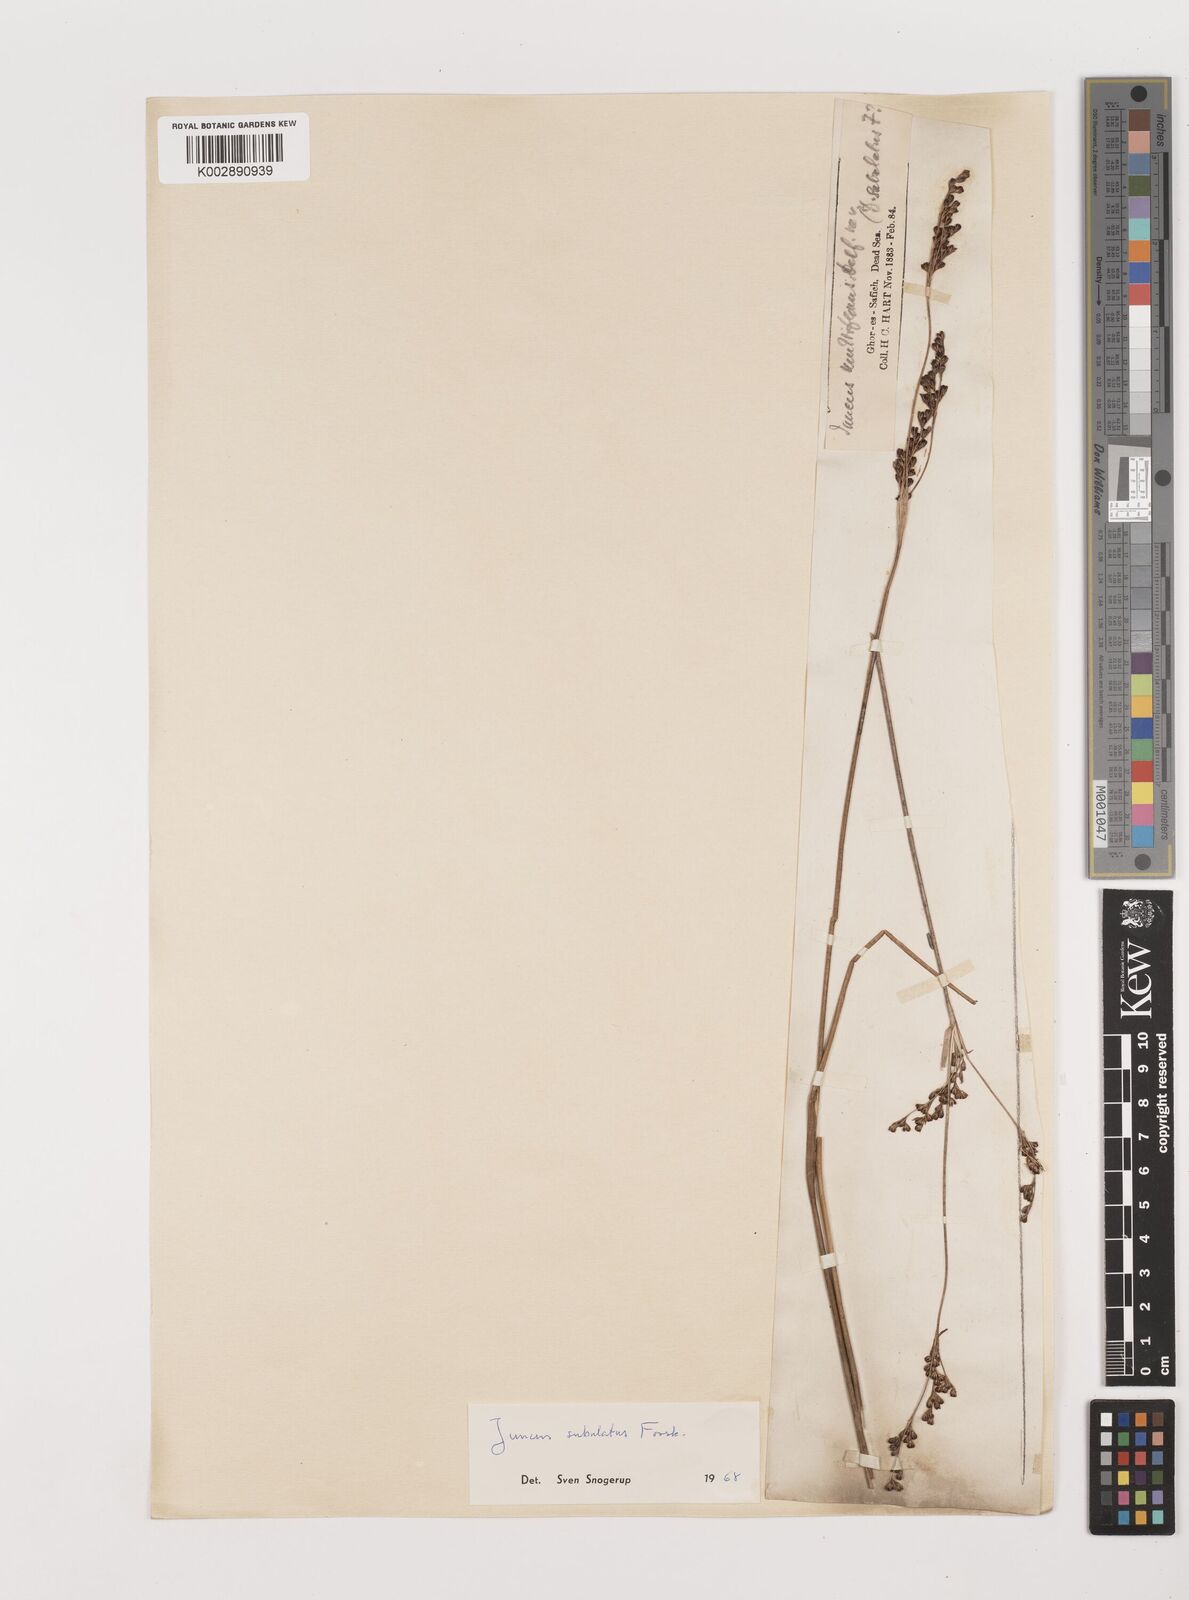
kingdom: Plantae
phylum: Tracheophyta
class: Liliopsida
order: Poales
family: Juncaceae
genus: Juncus
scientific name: Juncus subulatus
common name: Somerset rush
